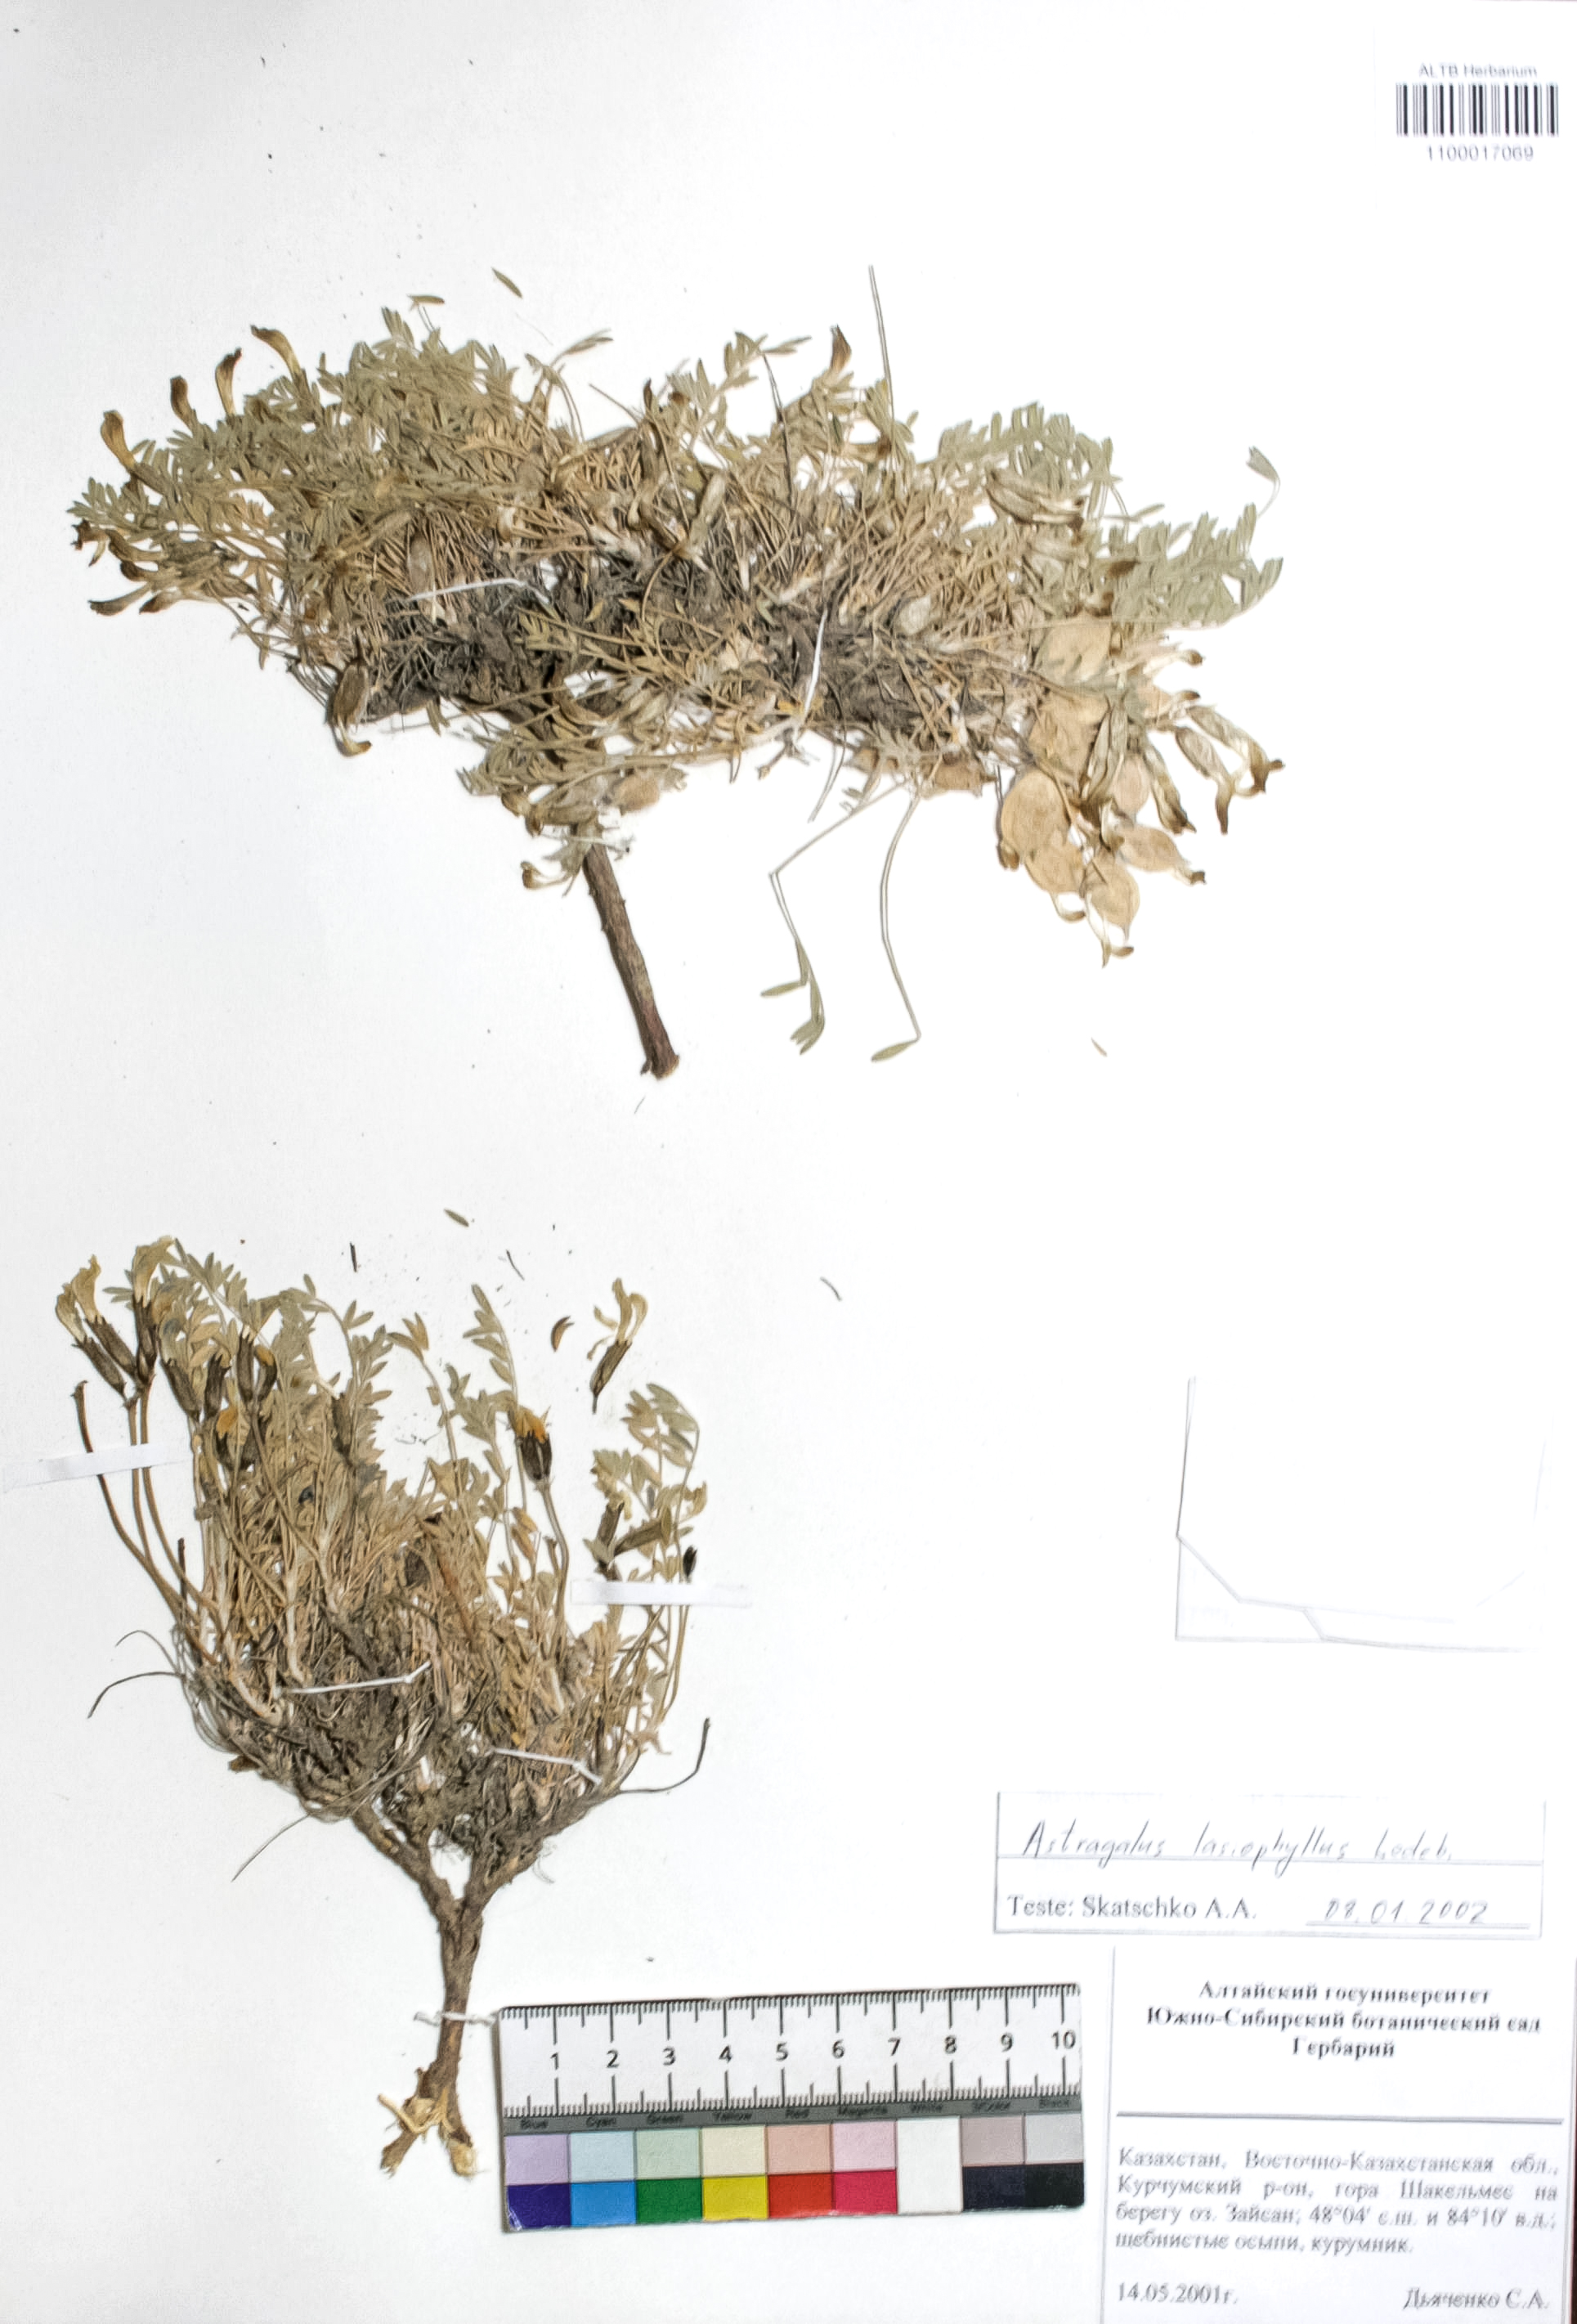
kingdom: Plantae
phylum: Tracheophyta
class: Magnoliopsida
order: Fabales
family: Fabaceae
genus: Astragalus
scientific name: Astragalus pallasii
